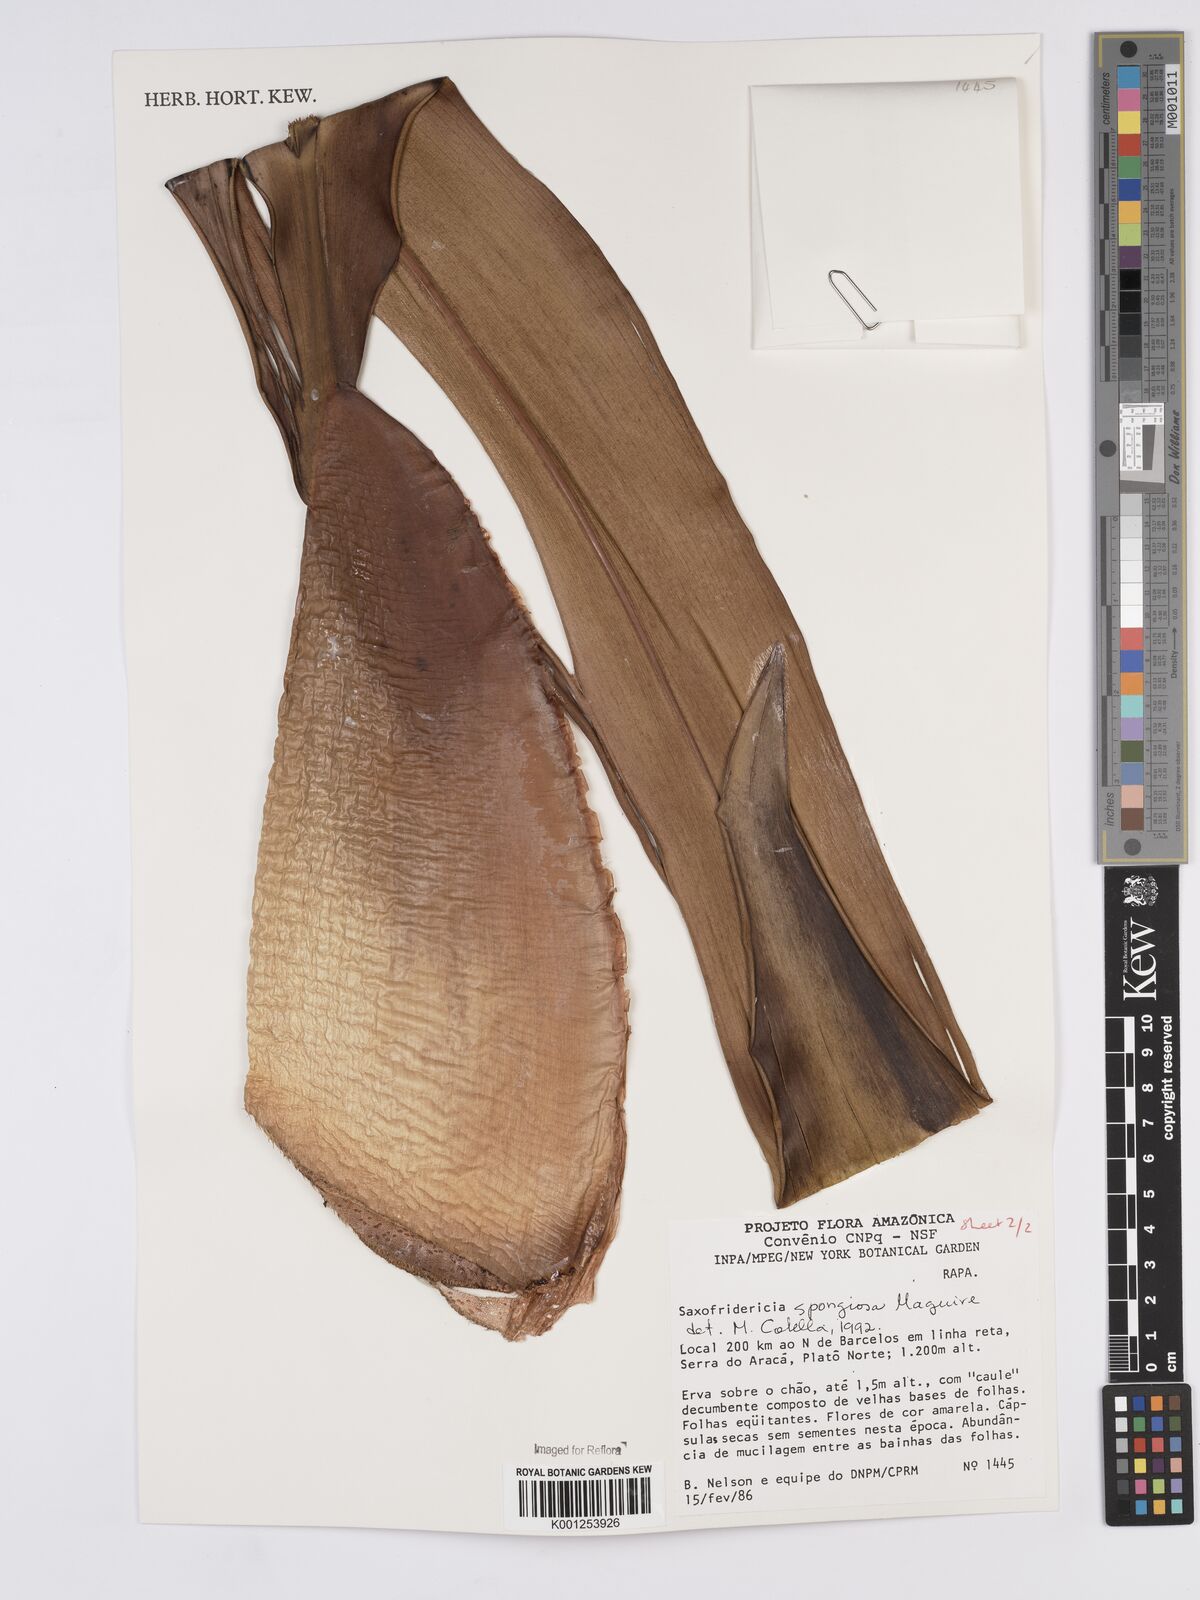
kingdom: Plantae
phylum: Tracheophyta
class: Liliopsida
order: Poales
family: Rapateaceae
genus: Saxofridericia
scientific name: Saxofridericia spongiosa
